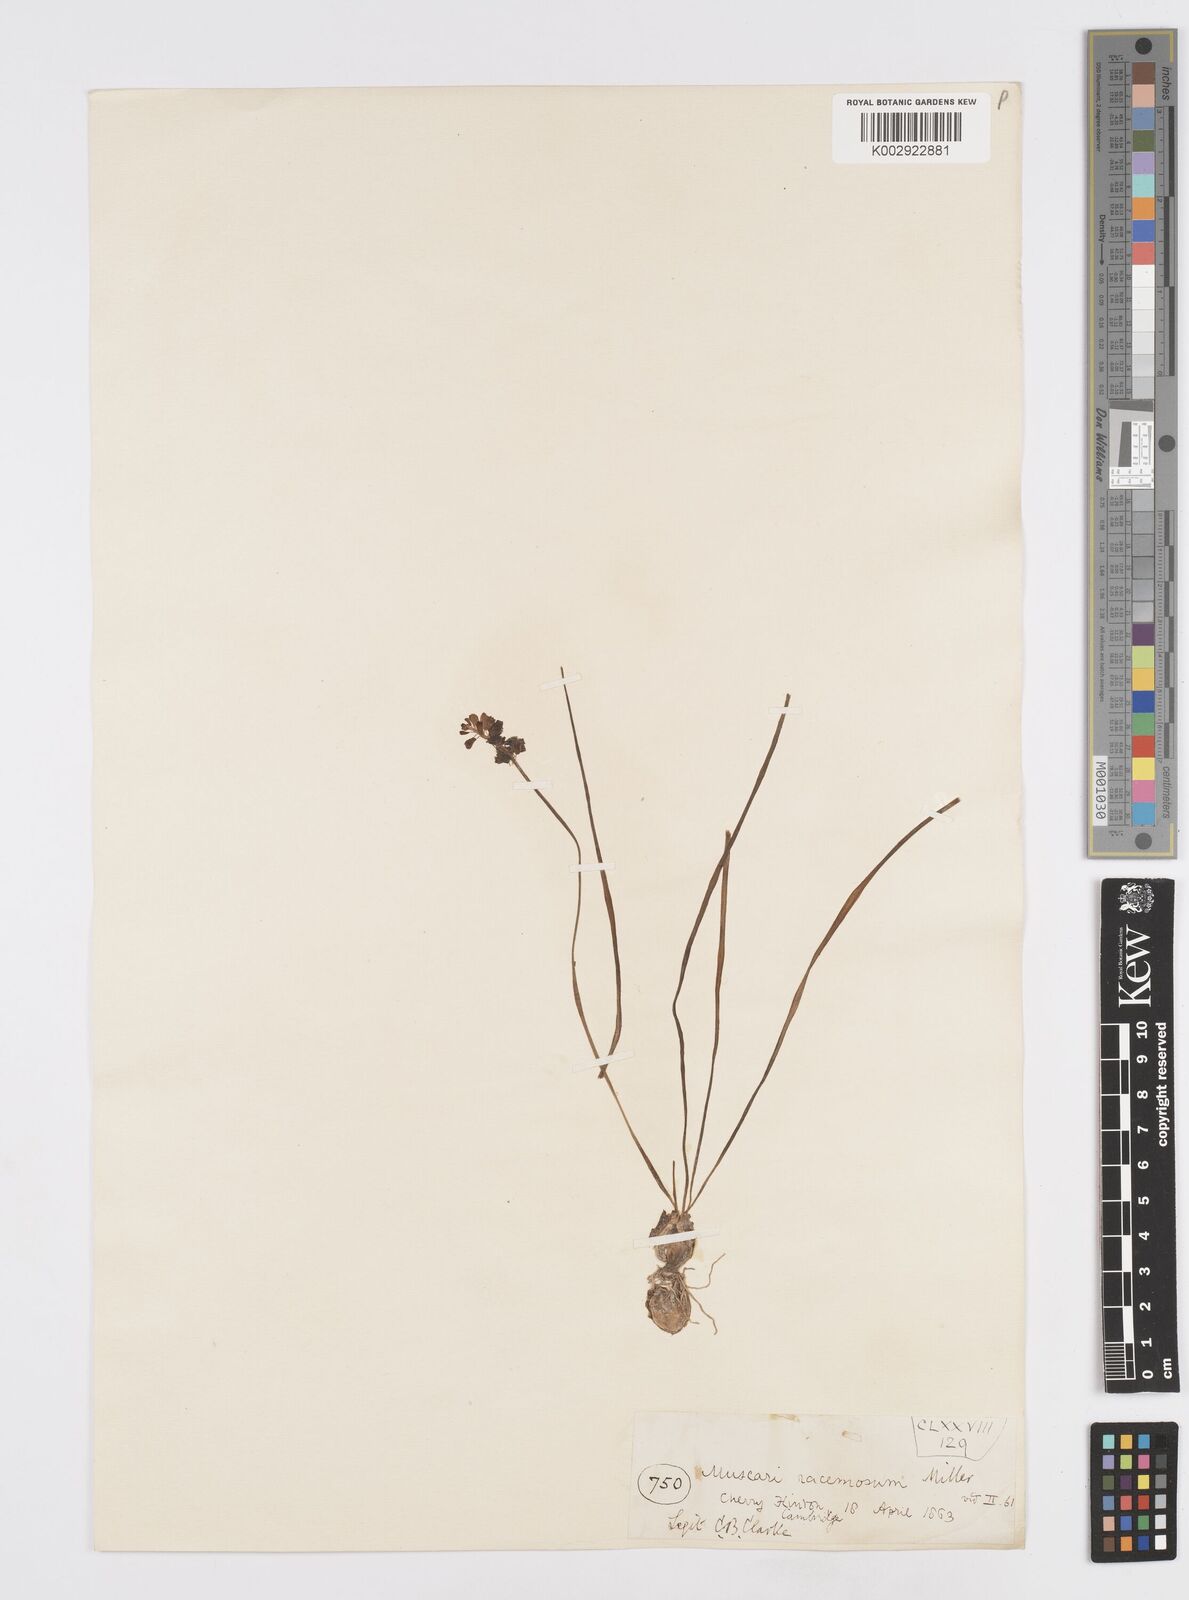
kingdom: Plantae
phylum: Tracheophyta
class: Liliopsida
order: Asparagales
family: Asparagaceae
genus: Muscarimia
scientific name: Muscarimia muscari
